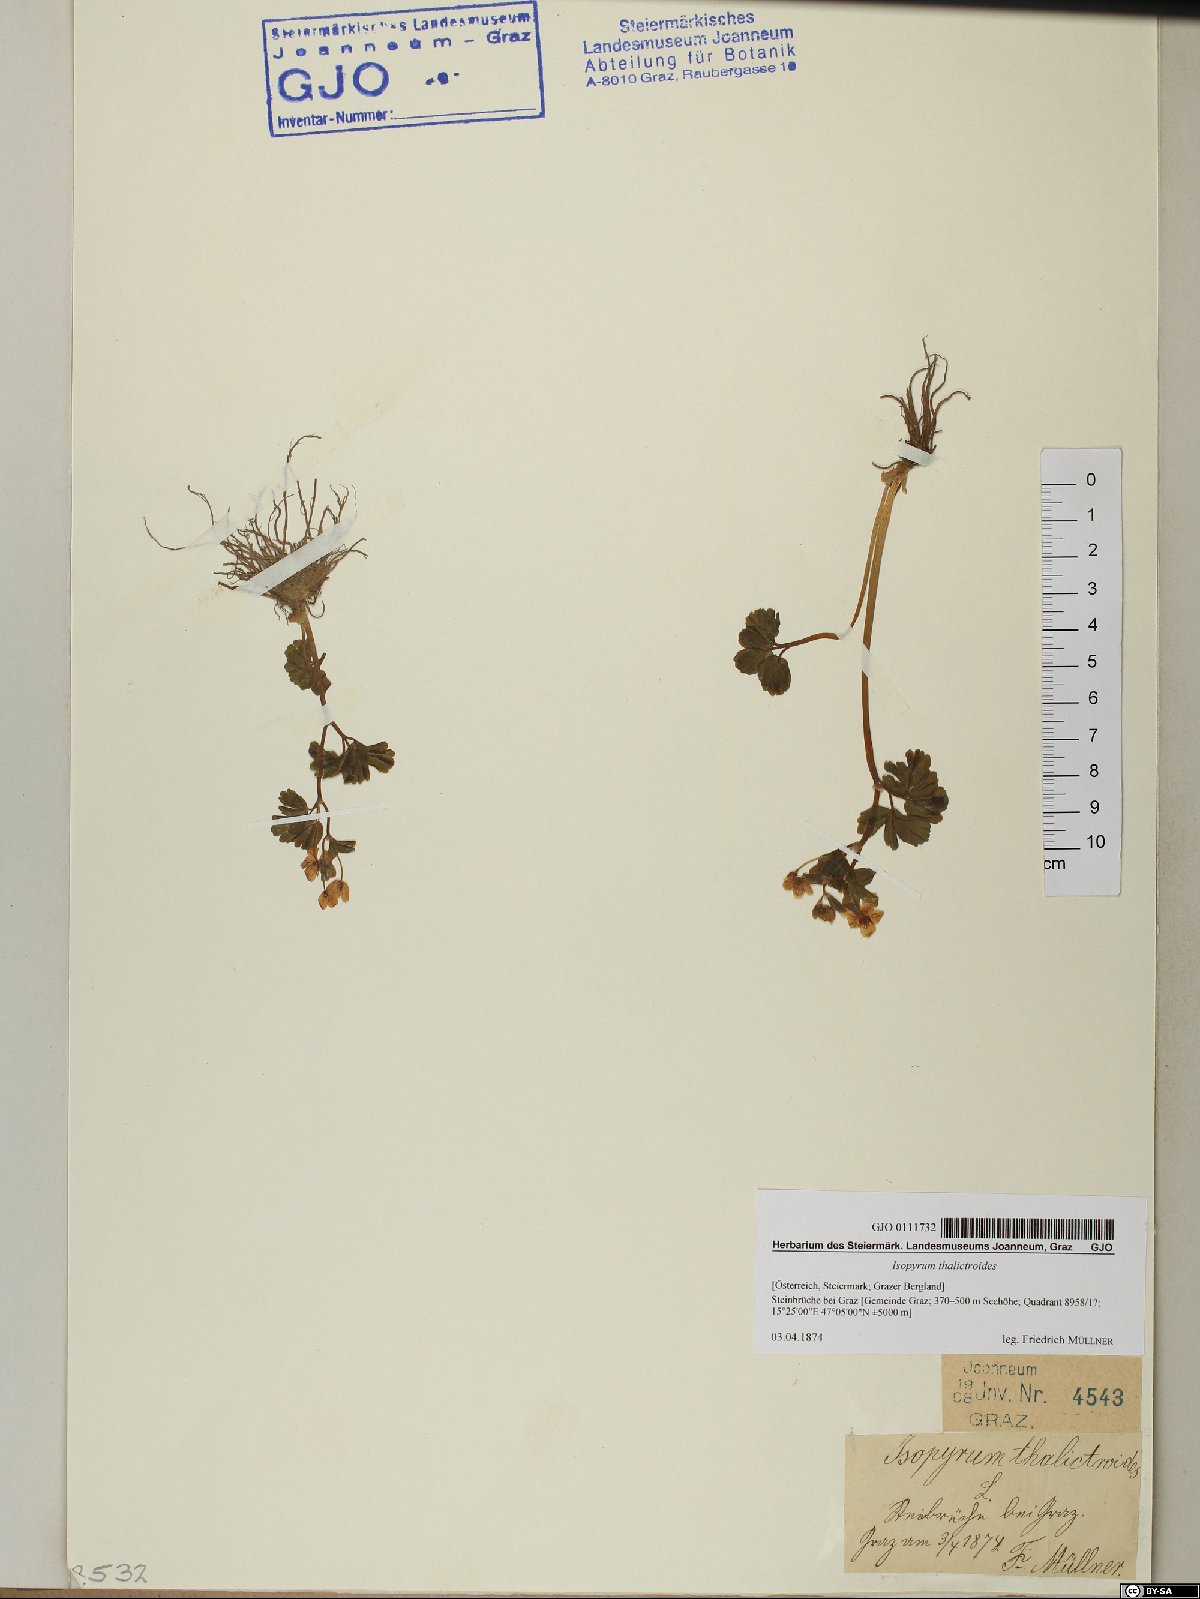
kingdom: Plantae
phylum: Tracheophyta
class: Magnoliopsida
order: Ranunculales
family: Ranunculaceae
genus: Isopyrum
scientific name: Isopyrum thalictroides
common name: Isopyrum
